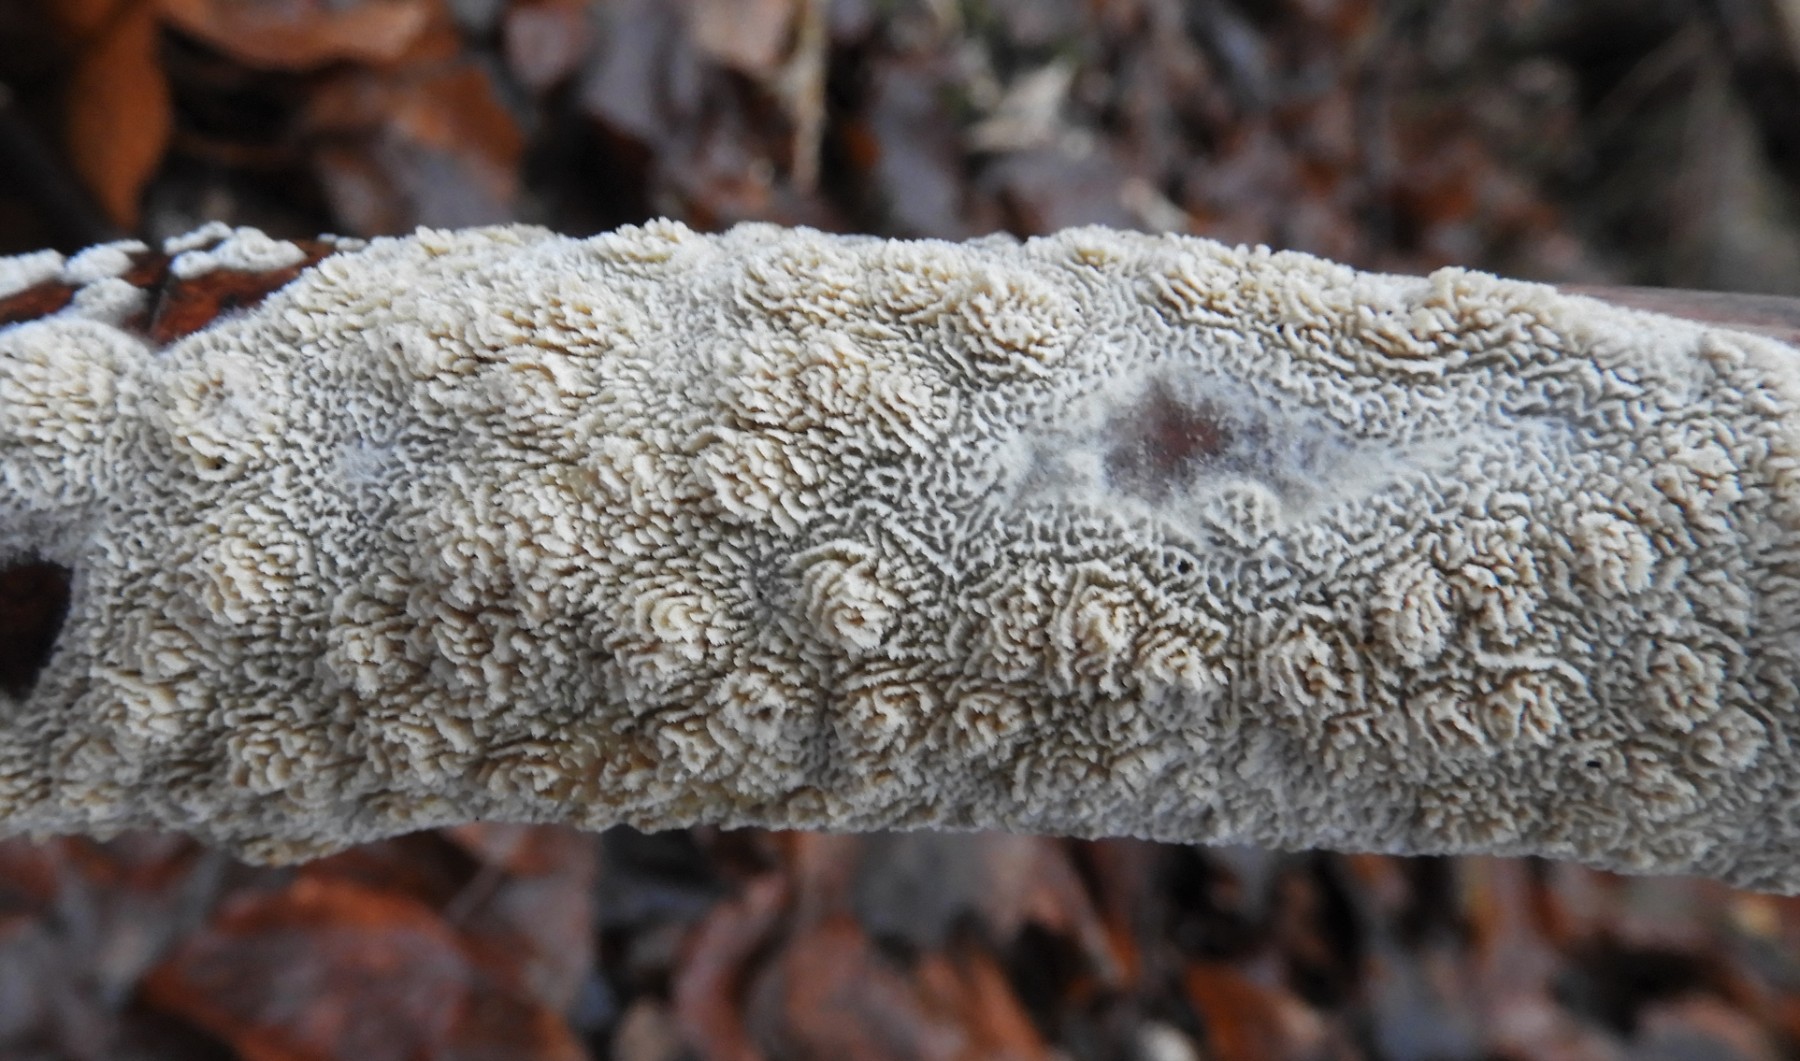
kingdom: Fungi
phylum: Basidiomycota
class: Agaricomycetes
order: Hymenochaetales
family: Schizoporaceae
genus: Xylodon
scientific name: Xylodon radula
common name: grovtandet kalkskind
